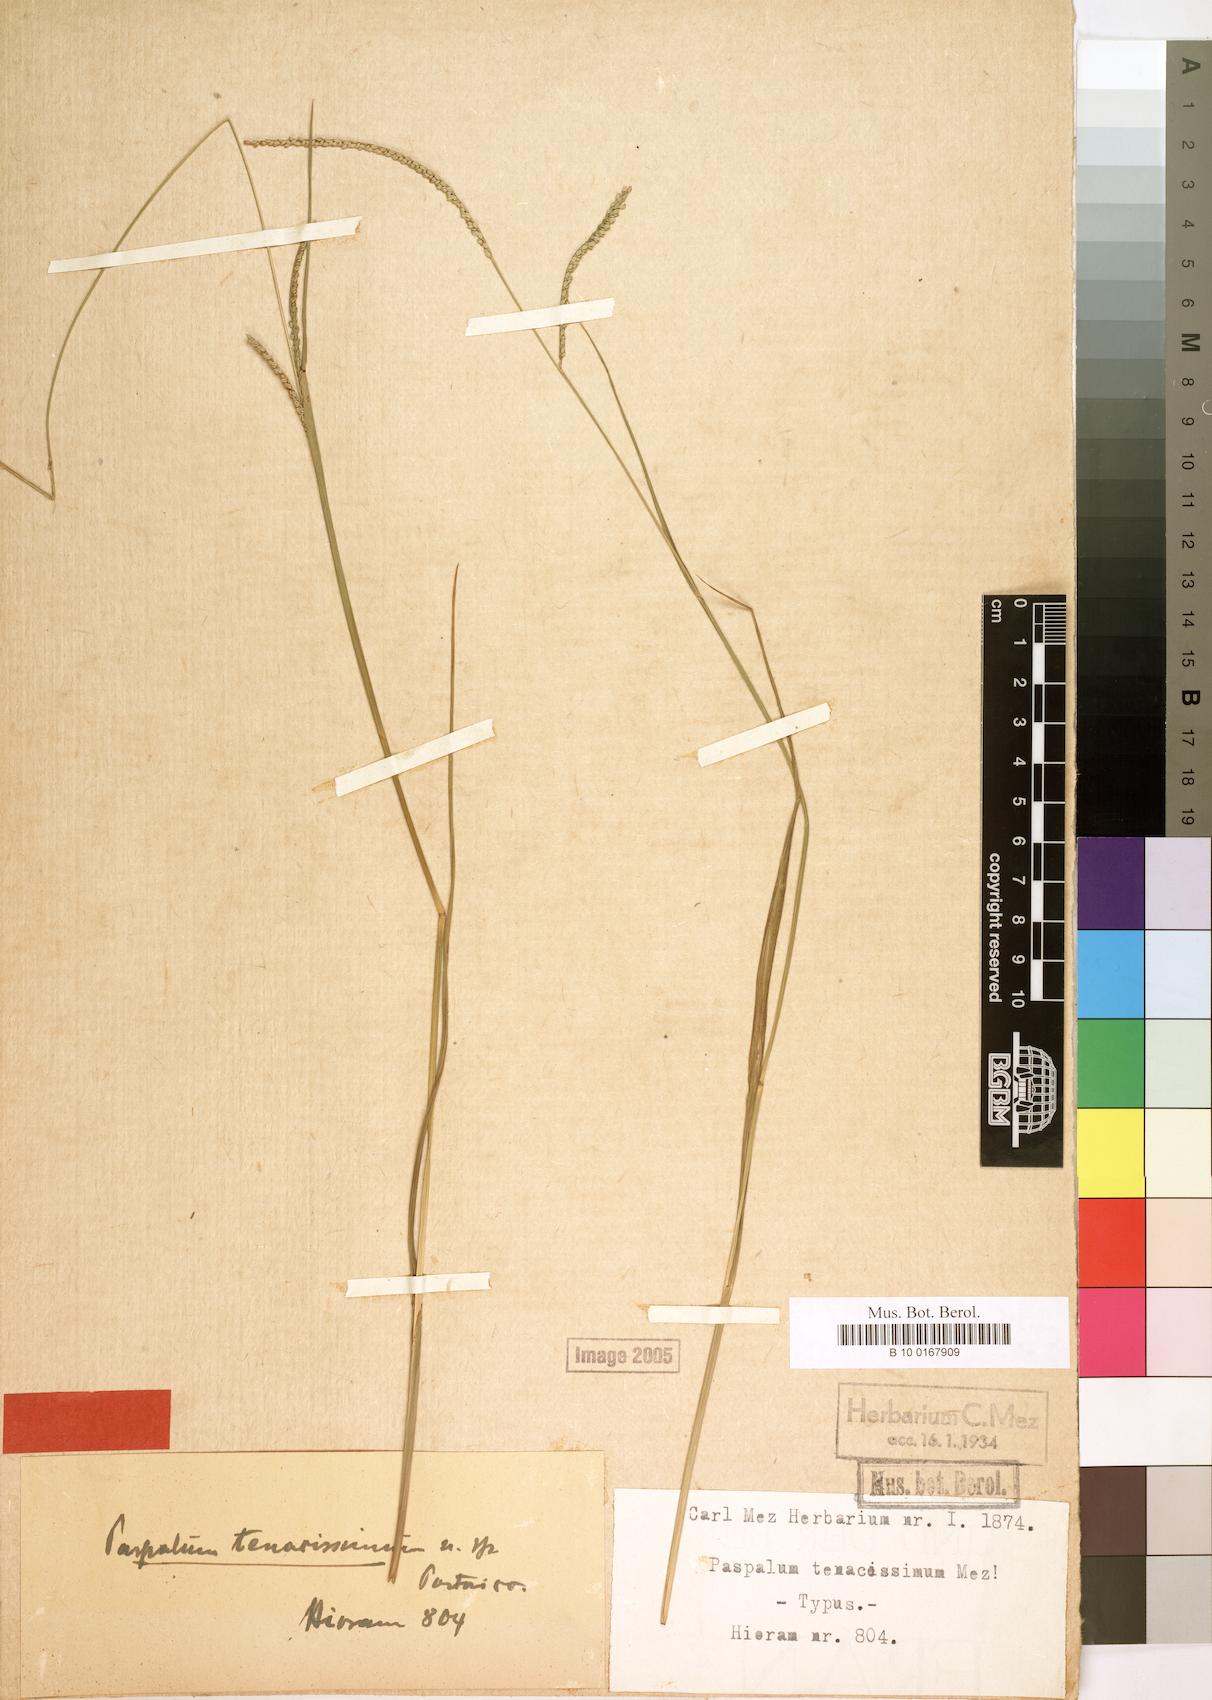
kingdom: Plantae
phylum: Tracheophyta
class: Liliopsida
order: Poales
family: Poaceae
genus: Paspalum
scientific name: Paspalum laxum
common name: Coconut paspalum
